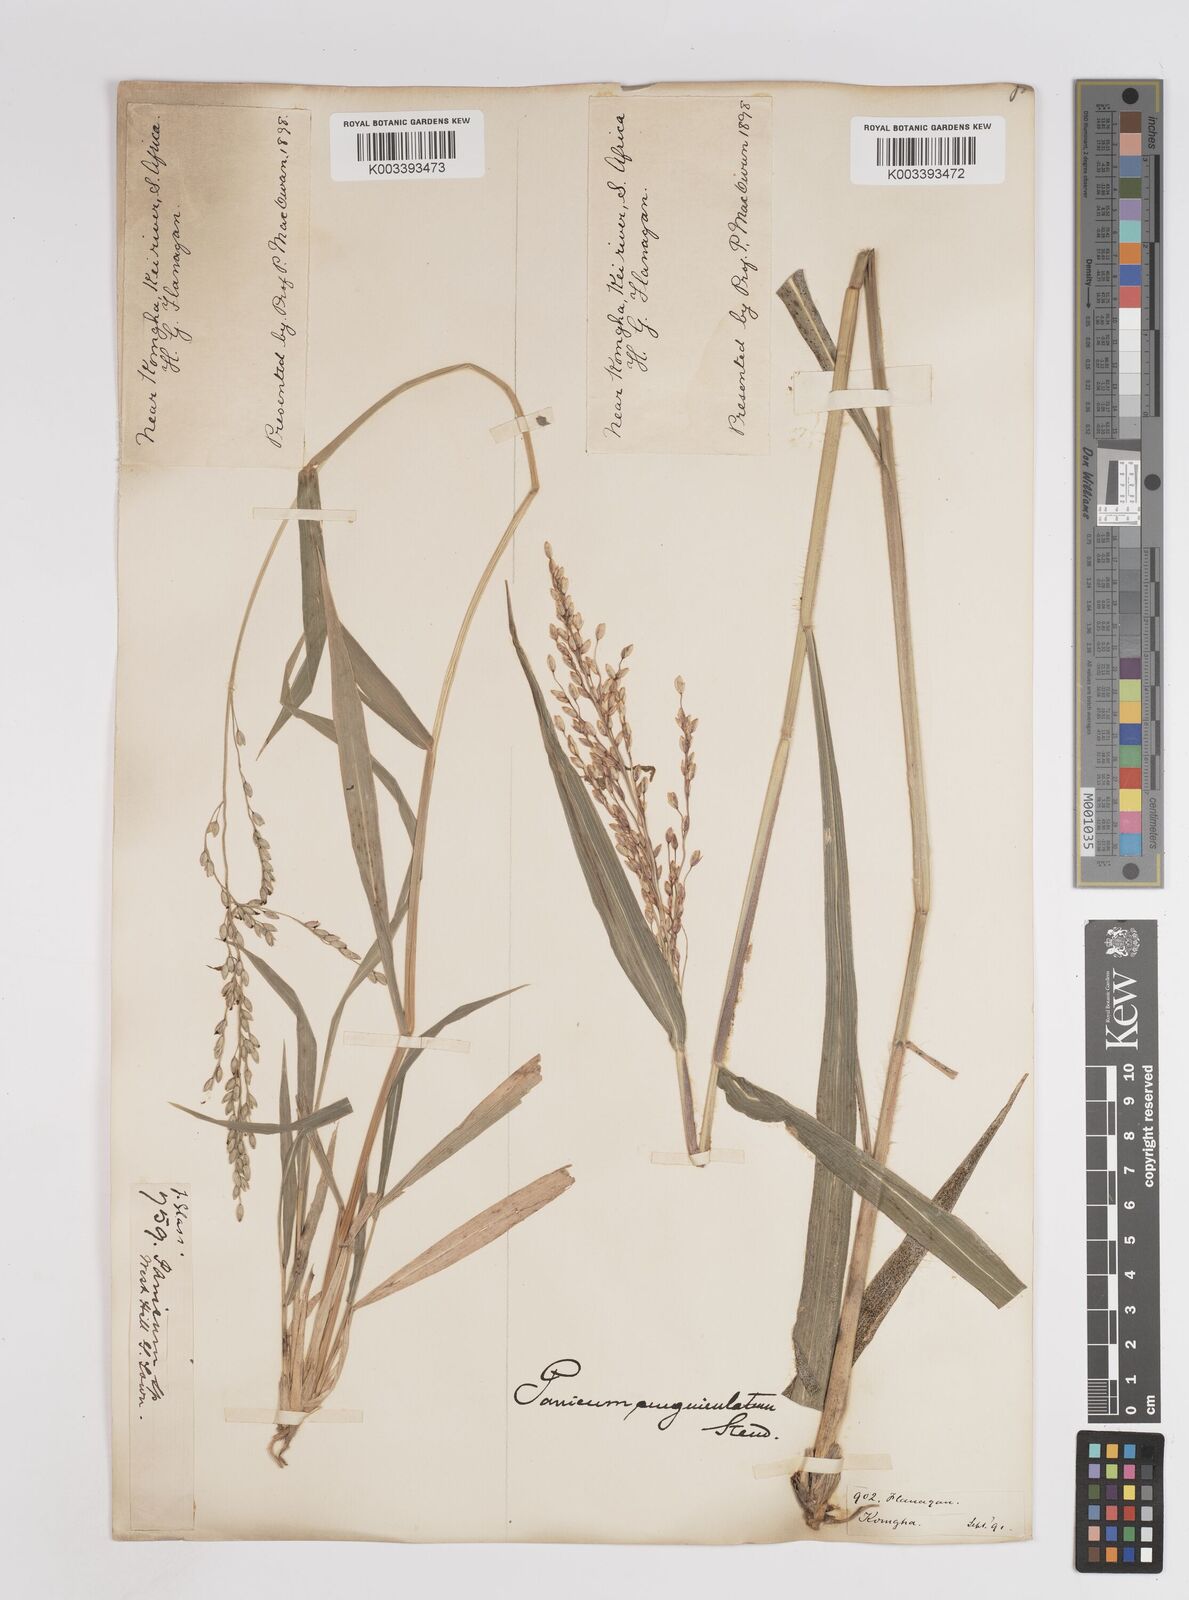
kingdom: Plantae
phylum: Tracheophyta
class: Liliopsida
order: Poales
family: Poaceae
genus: Panicum
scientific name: Panicum deustum
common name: Reed panicum
